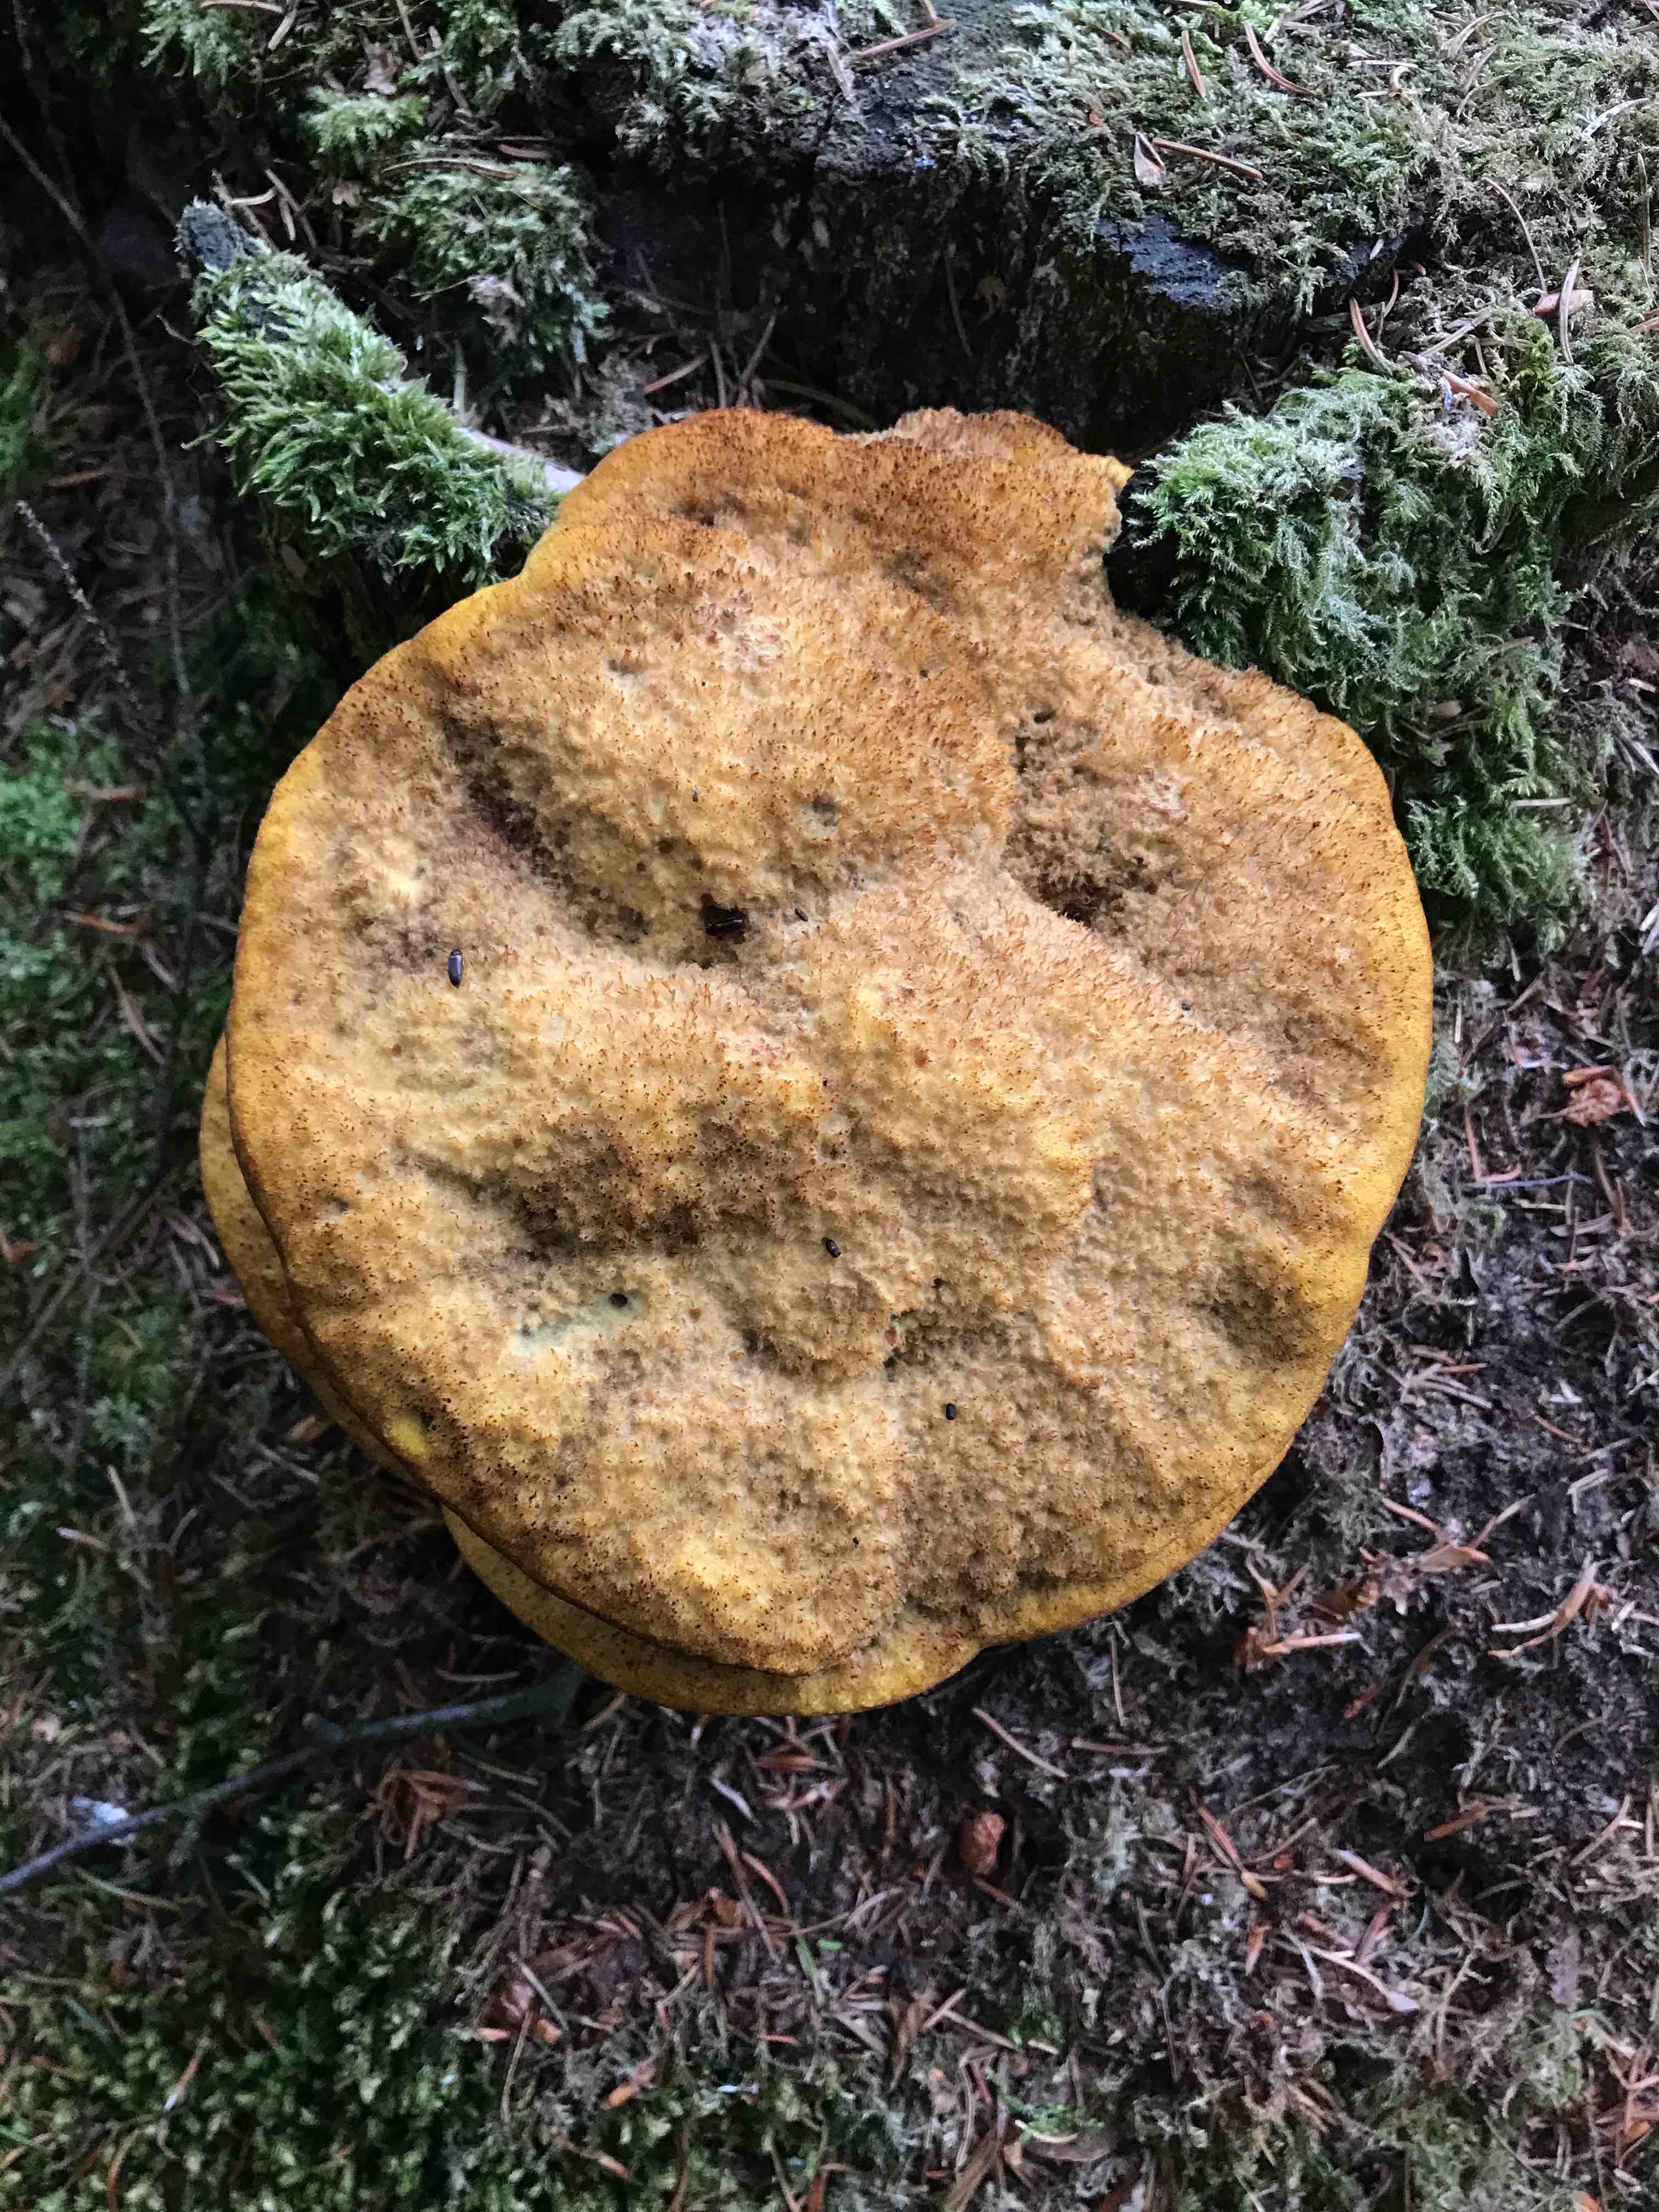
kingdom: Fungi
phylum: Basidiomycota
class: Agaricomycetes
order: Polyporales
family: Laetiporaceae
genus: Phaeolus
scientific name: Phaeolus schweinitzii
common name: brunporesvamp
